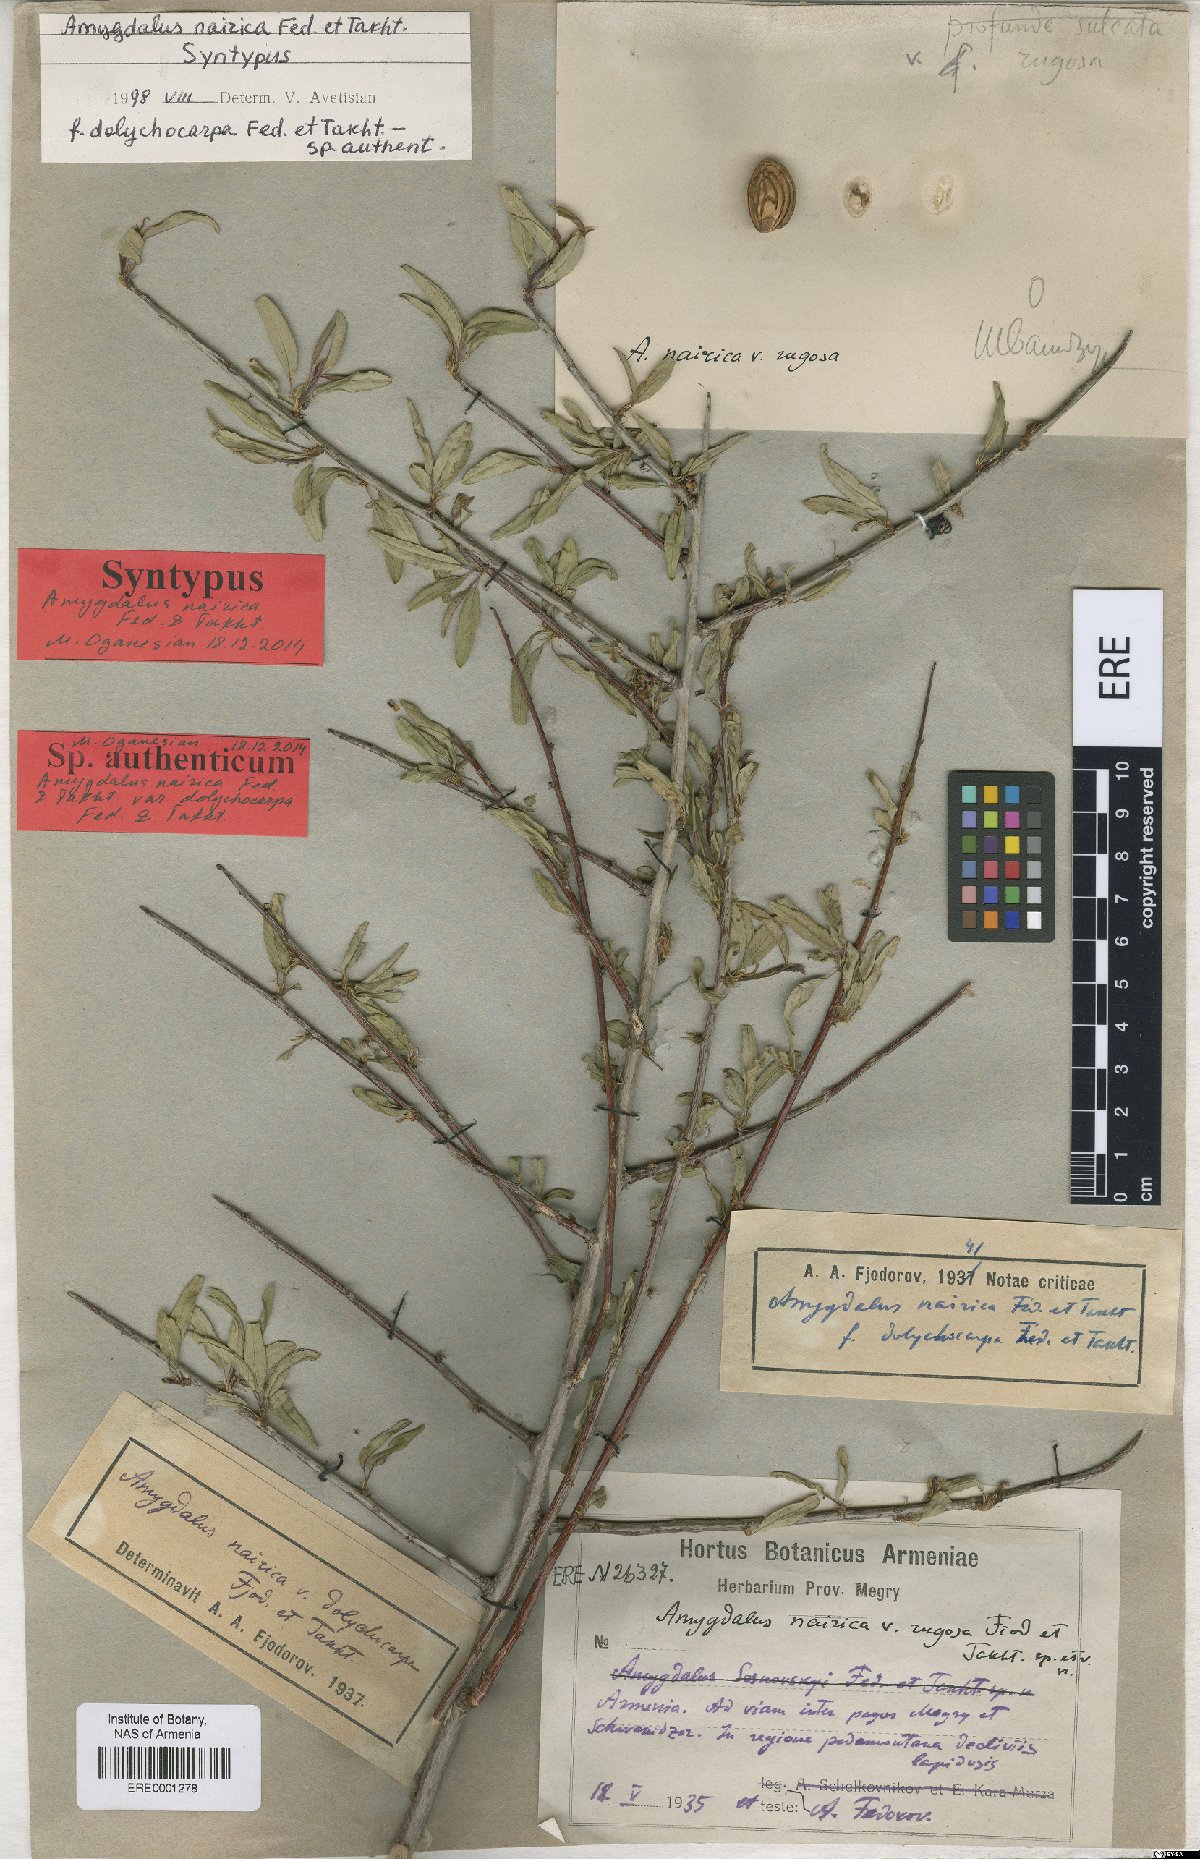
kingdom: Plantae
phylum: Tracheophyta
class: Magnoliopsida
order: Rosales
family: Rosaceae
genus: Prunus
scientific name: Prunus nairica
